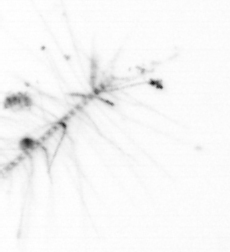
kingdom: Chromista
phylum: Ochrophyta
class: Bacillariophyceae
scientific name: Bacillariophyceae
